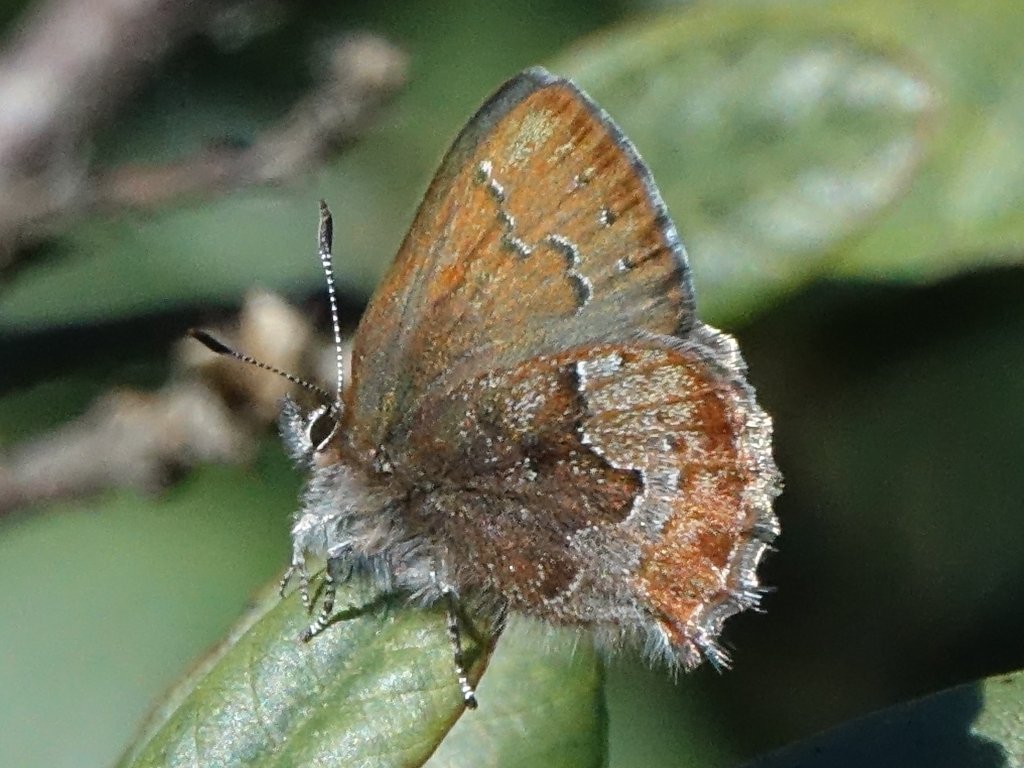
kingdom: Animalia
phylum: Arthropoda
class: Insecta
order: Lepidoptera
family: Lycaenidae
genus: Callophrys
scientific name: Callophrys mossii
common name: Moss' Elfin
